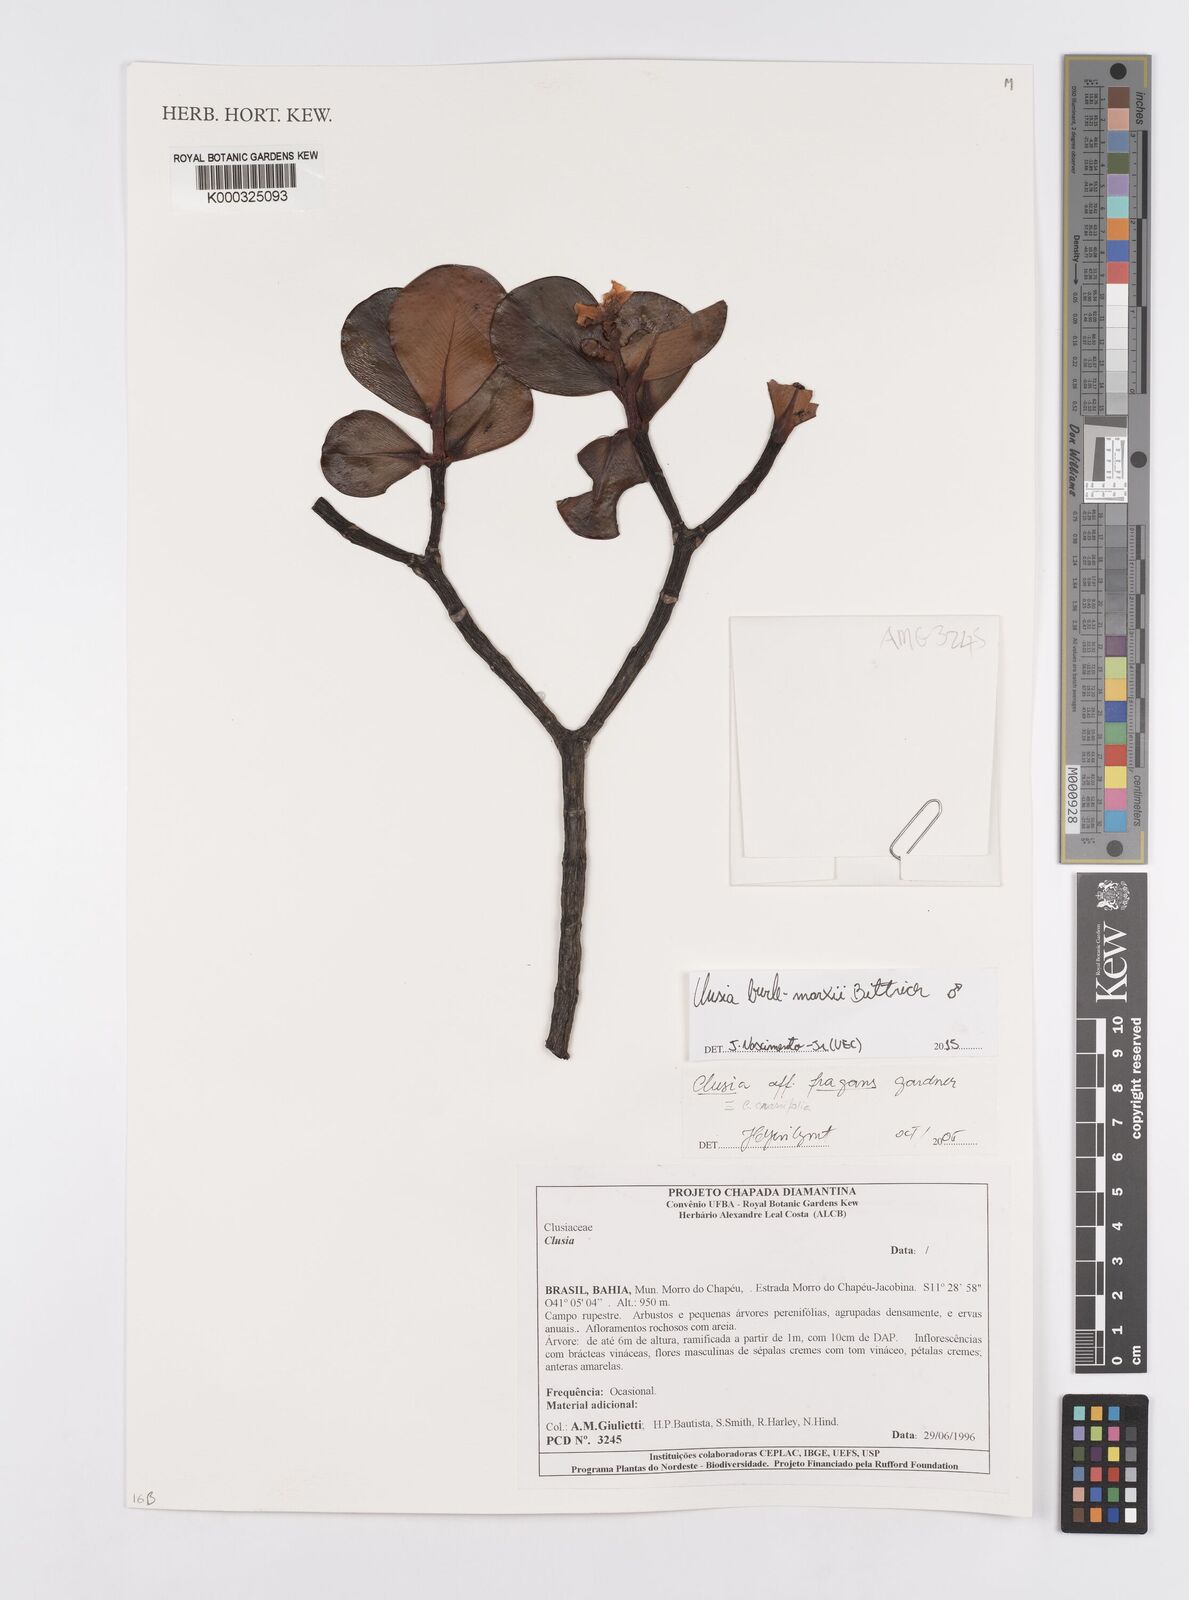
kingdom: Plantae
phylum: Tracheophyta
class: Magnoliopsida
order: Malpighiales
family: Clusiaceae
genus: Clusia
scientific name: Clusia
